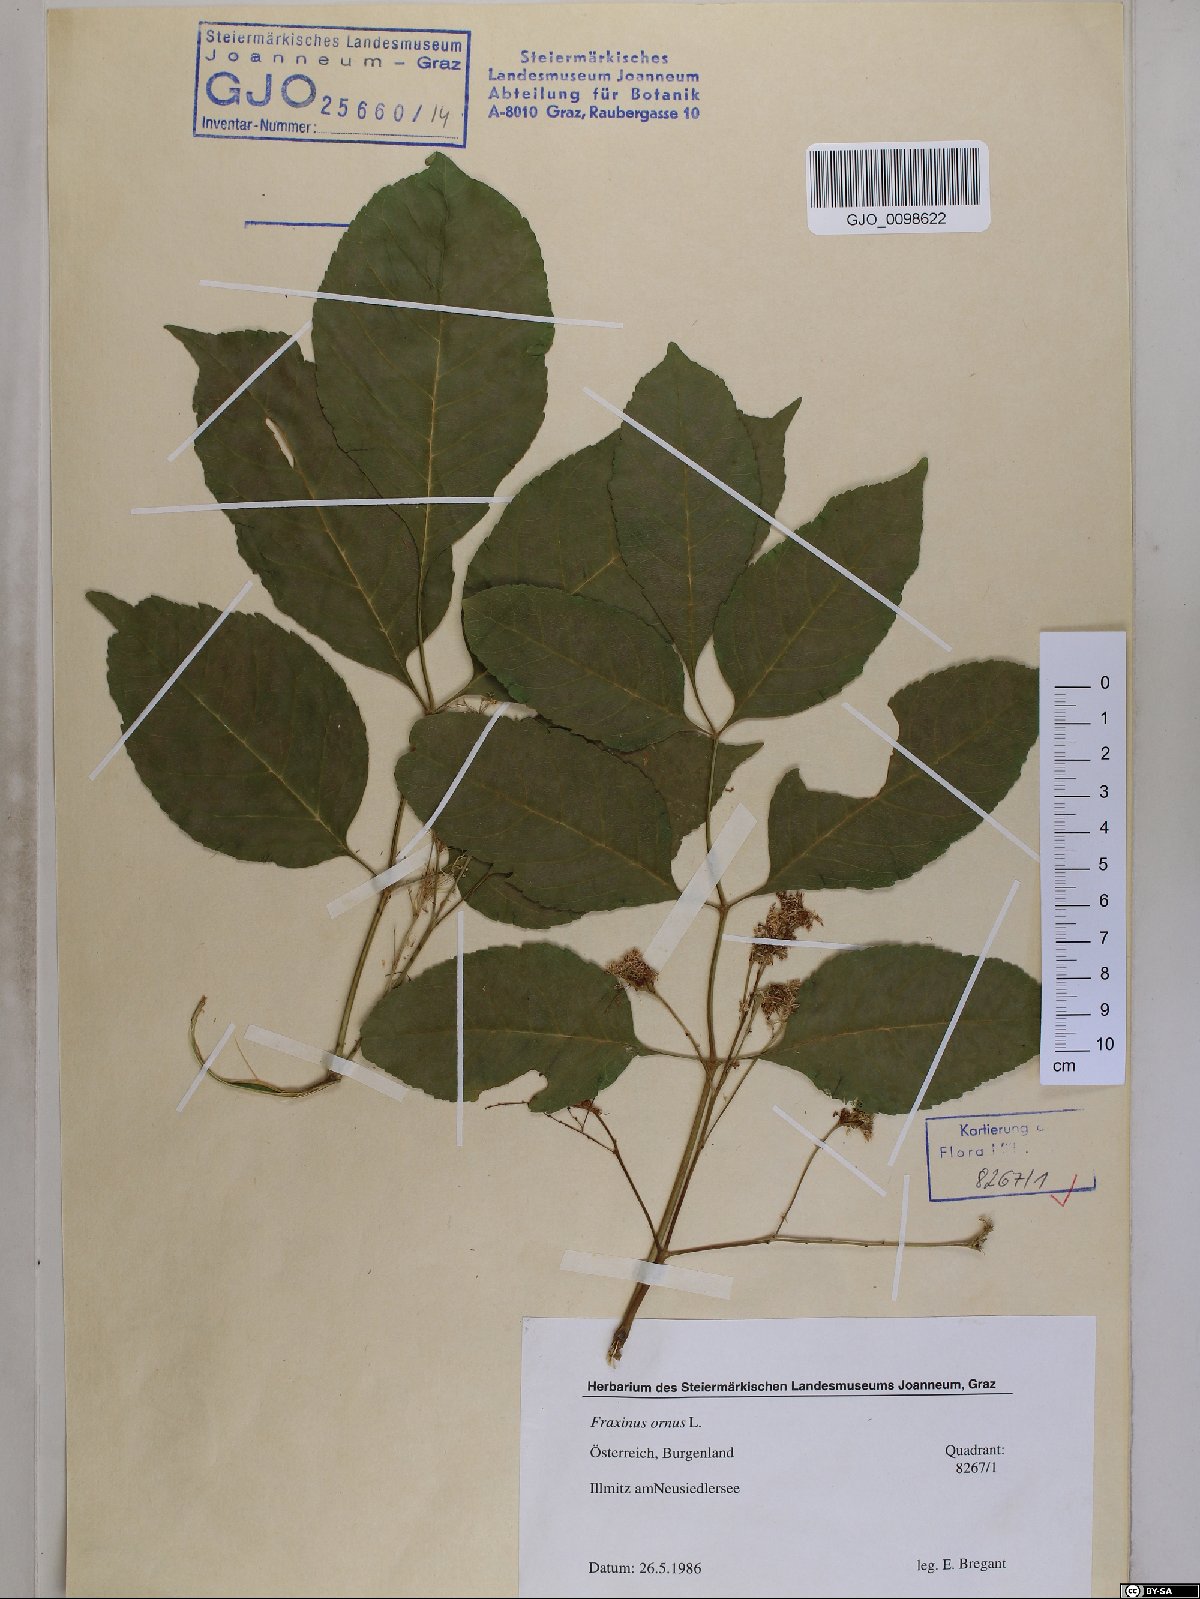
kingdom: Plantae
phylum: Tracheophyta
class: Magnoliopsida
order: Lamiales
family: Oleaceae
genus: Fraxinus
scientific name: Fraxinus ornus
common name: Manna ash
